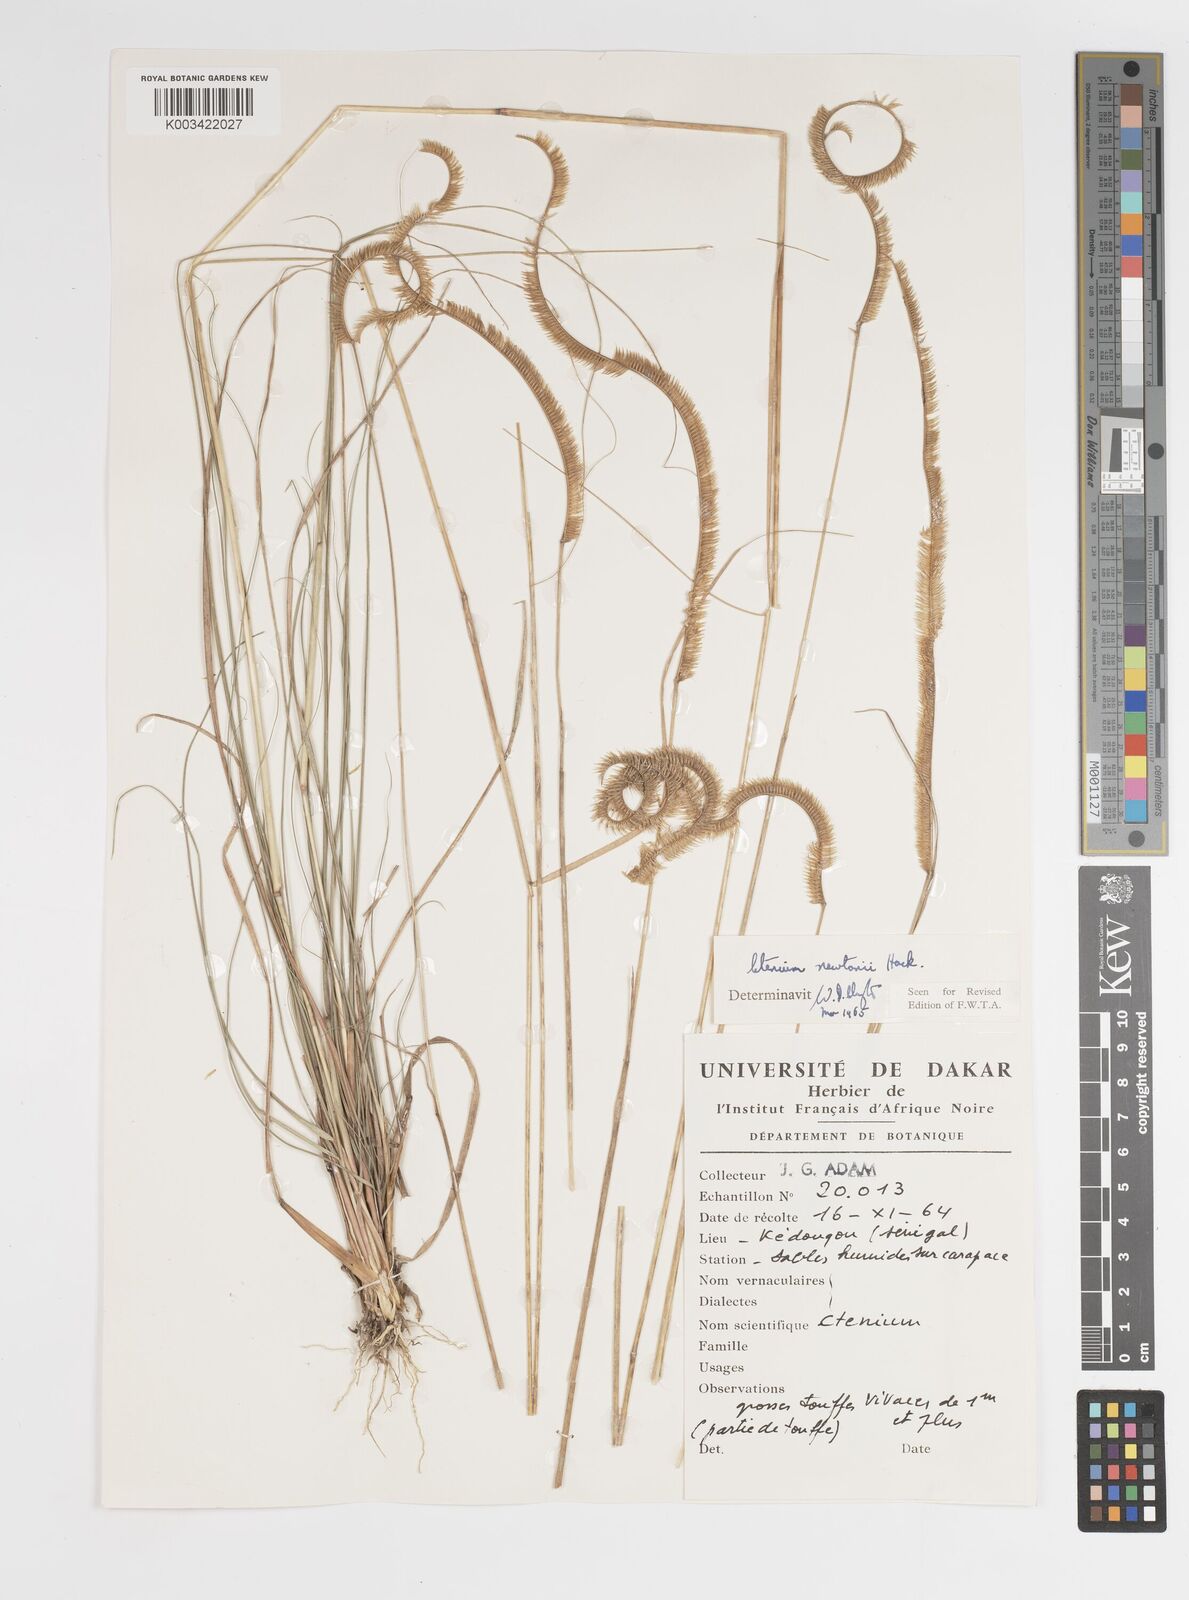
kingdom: Plantae
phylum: Tracheophyta
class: Liliopsida
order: Poales
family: Poaceae
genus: Ctenium
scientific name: Ctenium newtonii
